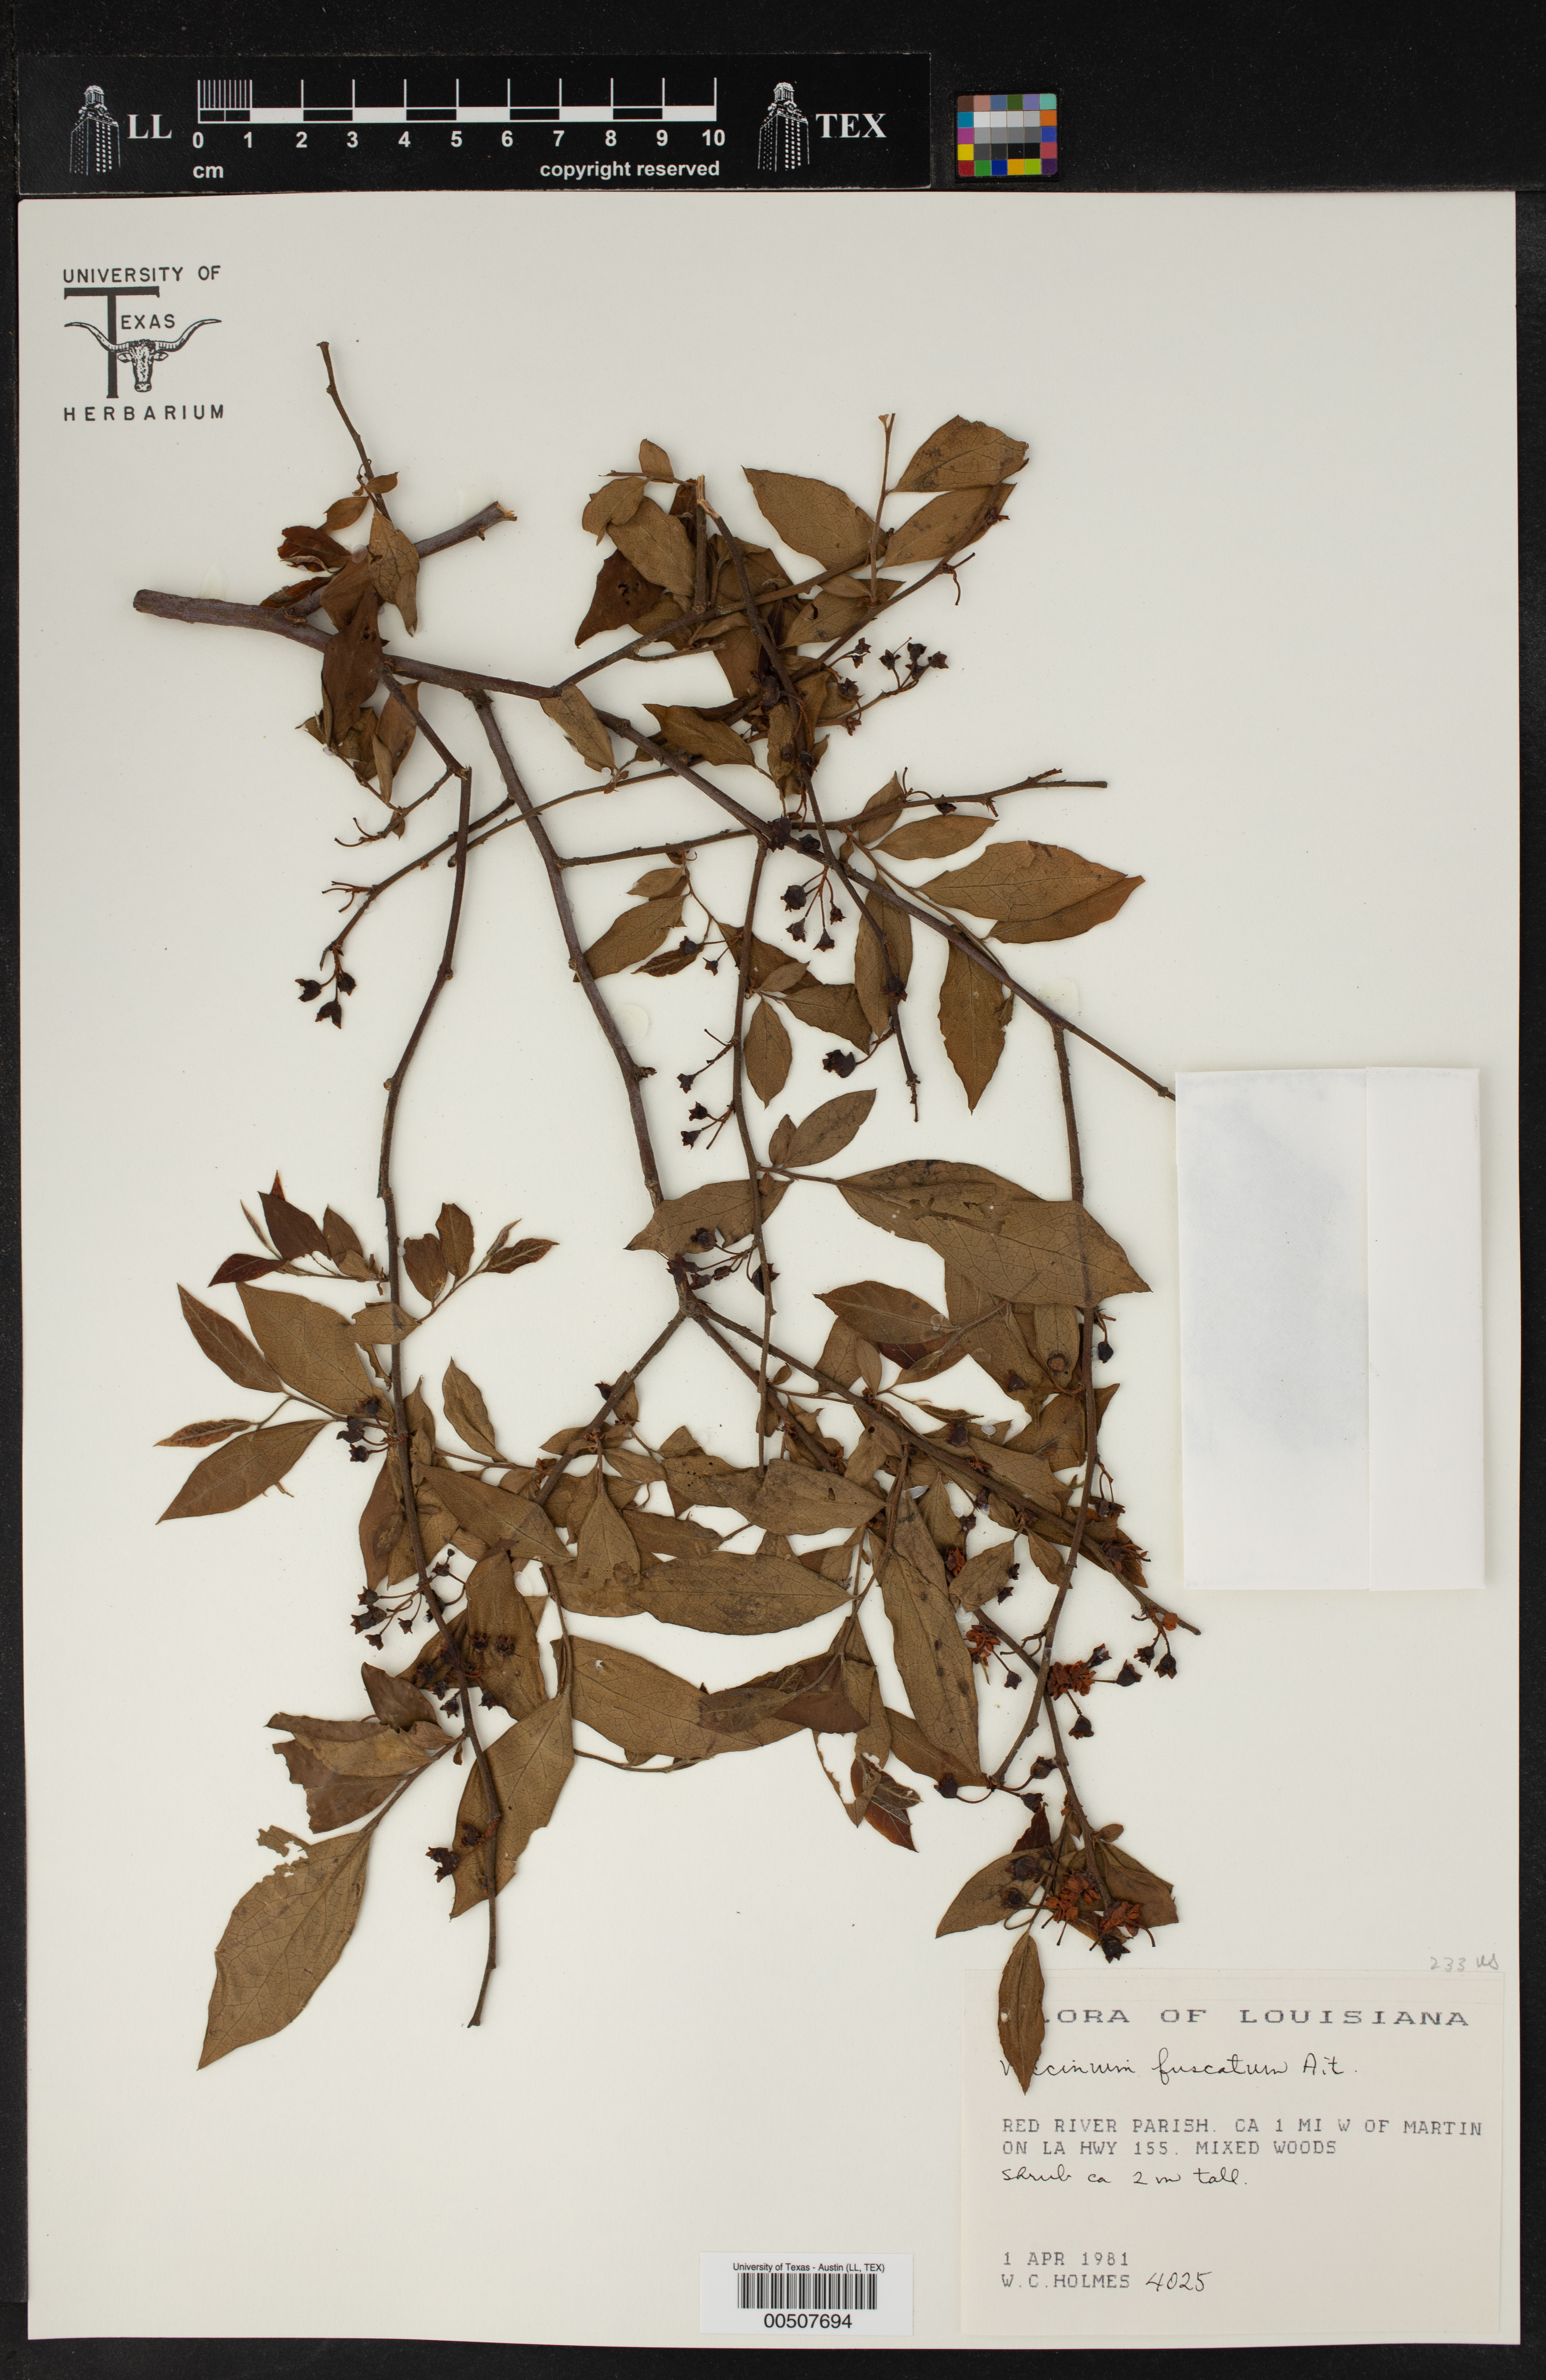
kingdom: Plantae
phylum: Tracheophyta
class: Magnoliopsida
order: Ericales
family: Ericaceae
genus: Vaccinium
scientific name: Vaccinium corymbosum
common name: Blueberry
